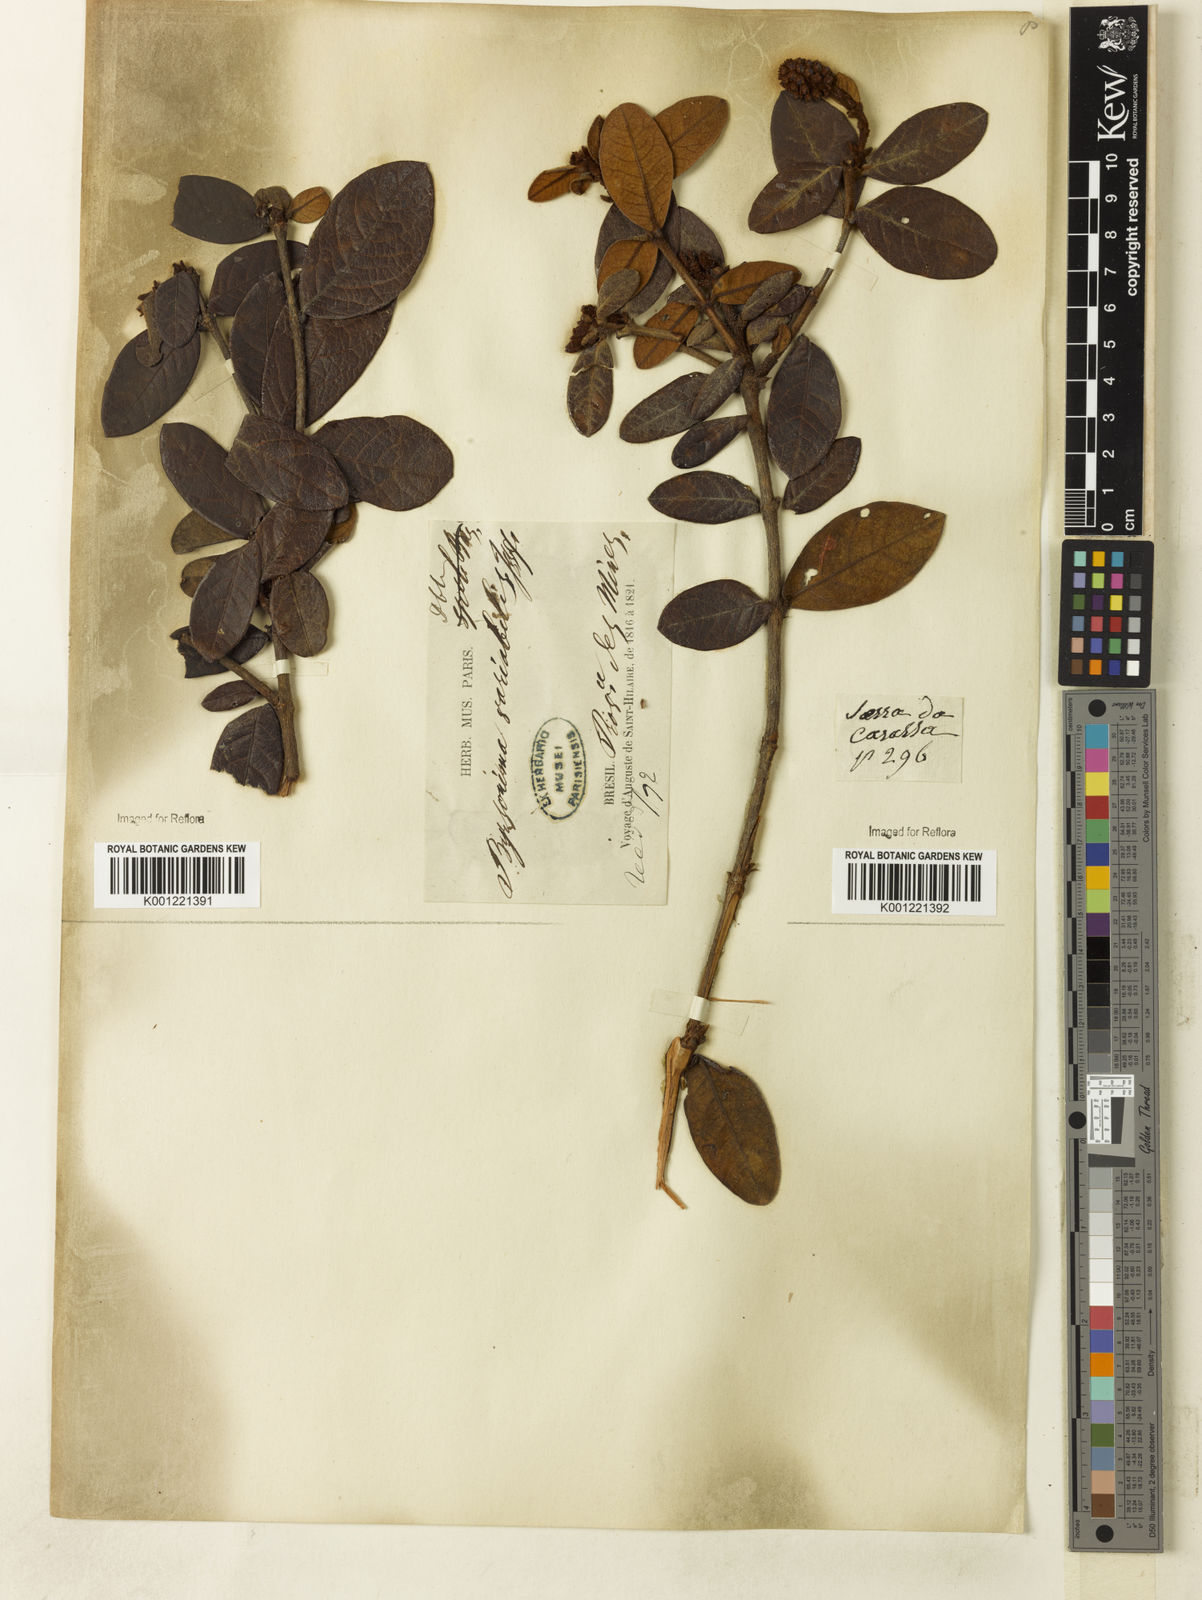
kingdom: Plantae
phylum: Tracheophyta
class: Magnoliopsida
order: Malpighiales
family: Malpighiaceae
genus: Byrsonima
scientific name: Byrsonima variabilis
